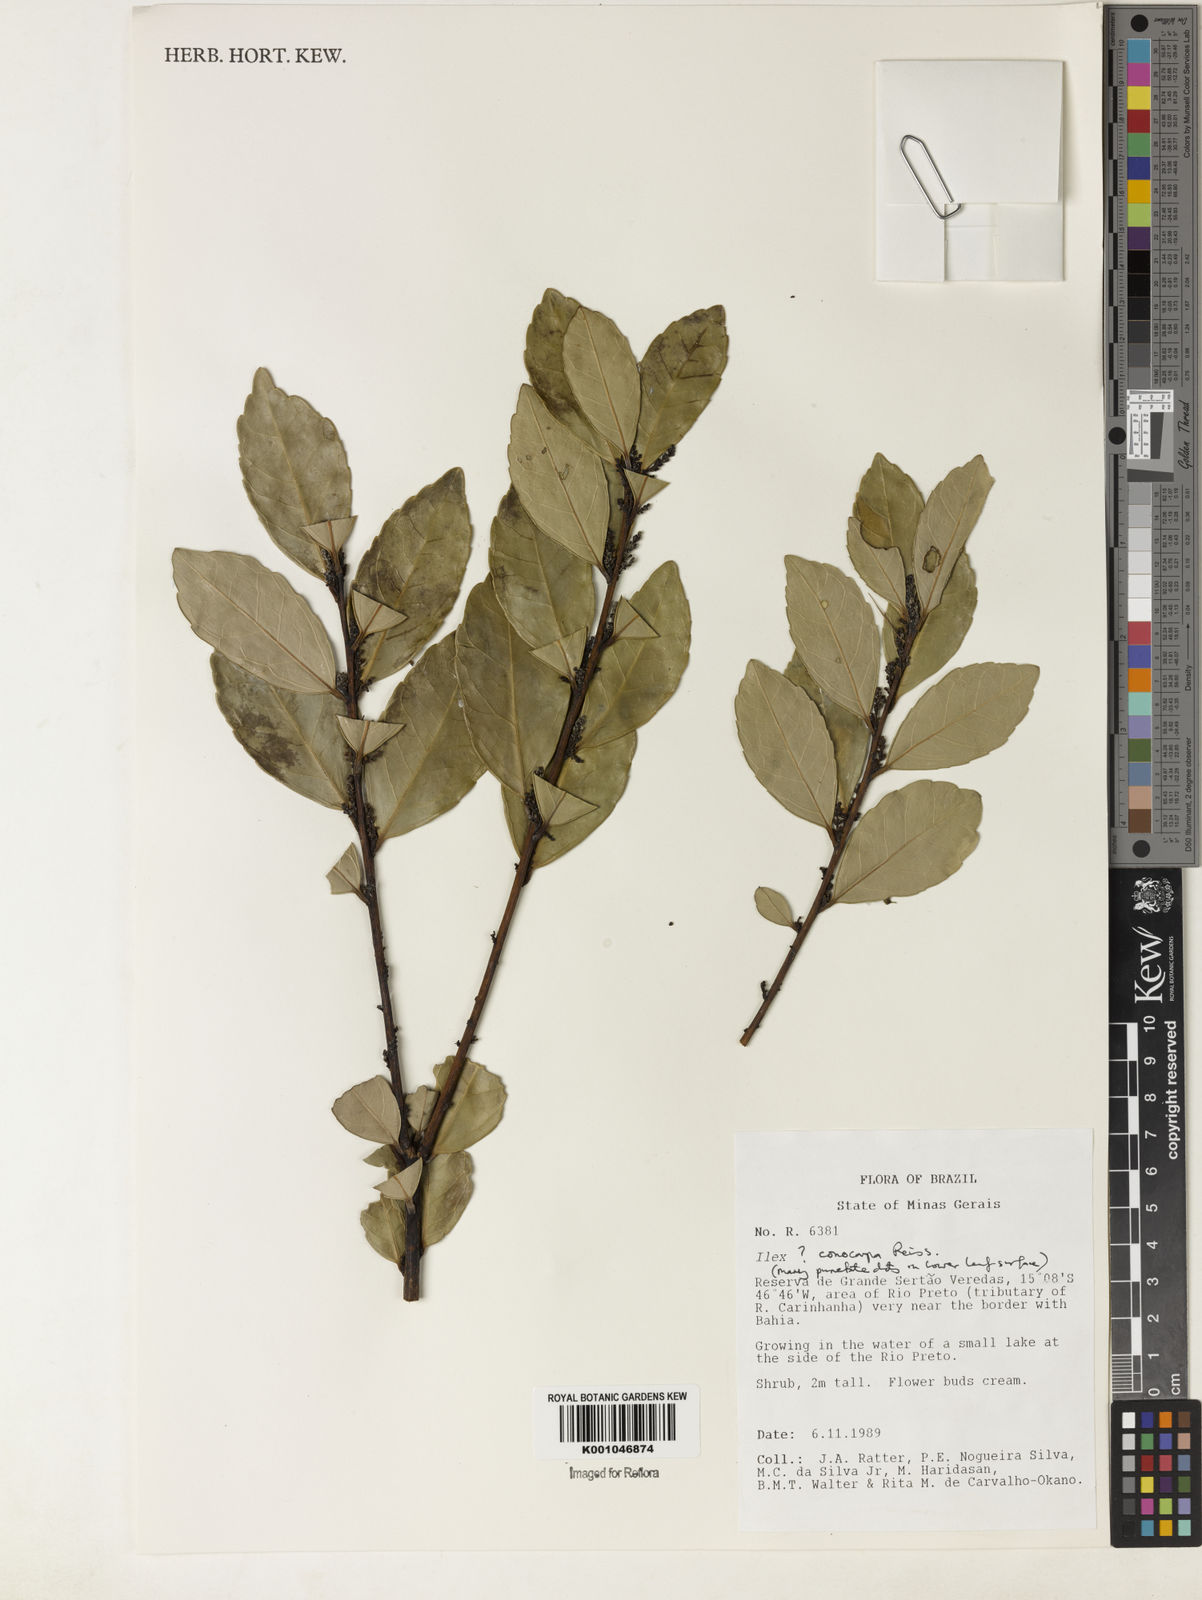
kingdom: Plantae
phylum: Tracheophyta
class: Magnoliopsida
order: Aquifoliales
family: Aquifoliaceae
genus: Ilex
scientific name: Ilex conocarpa
